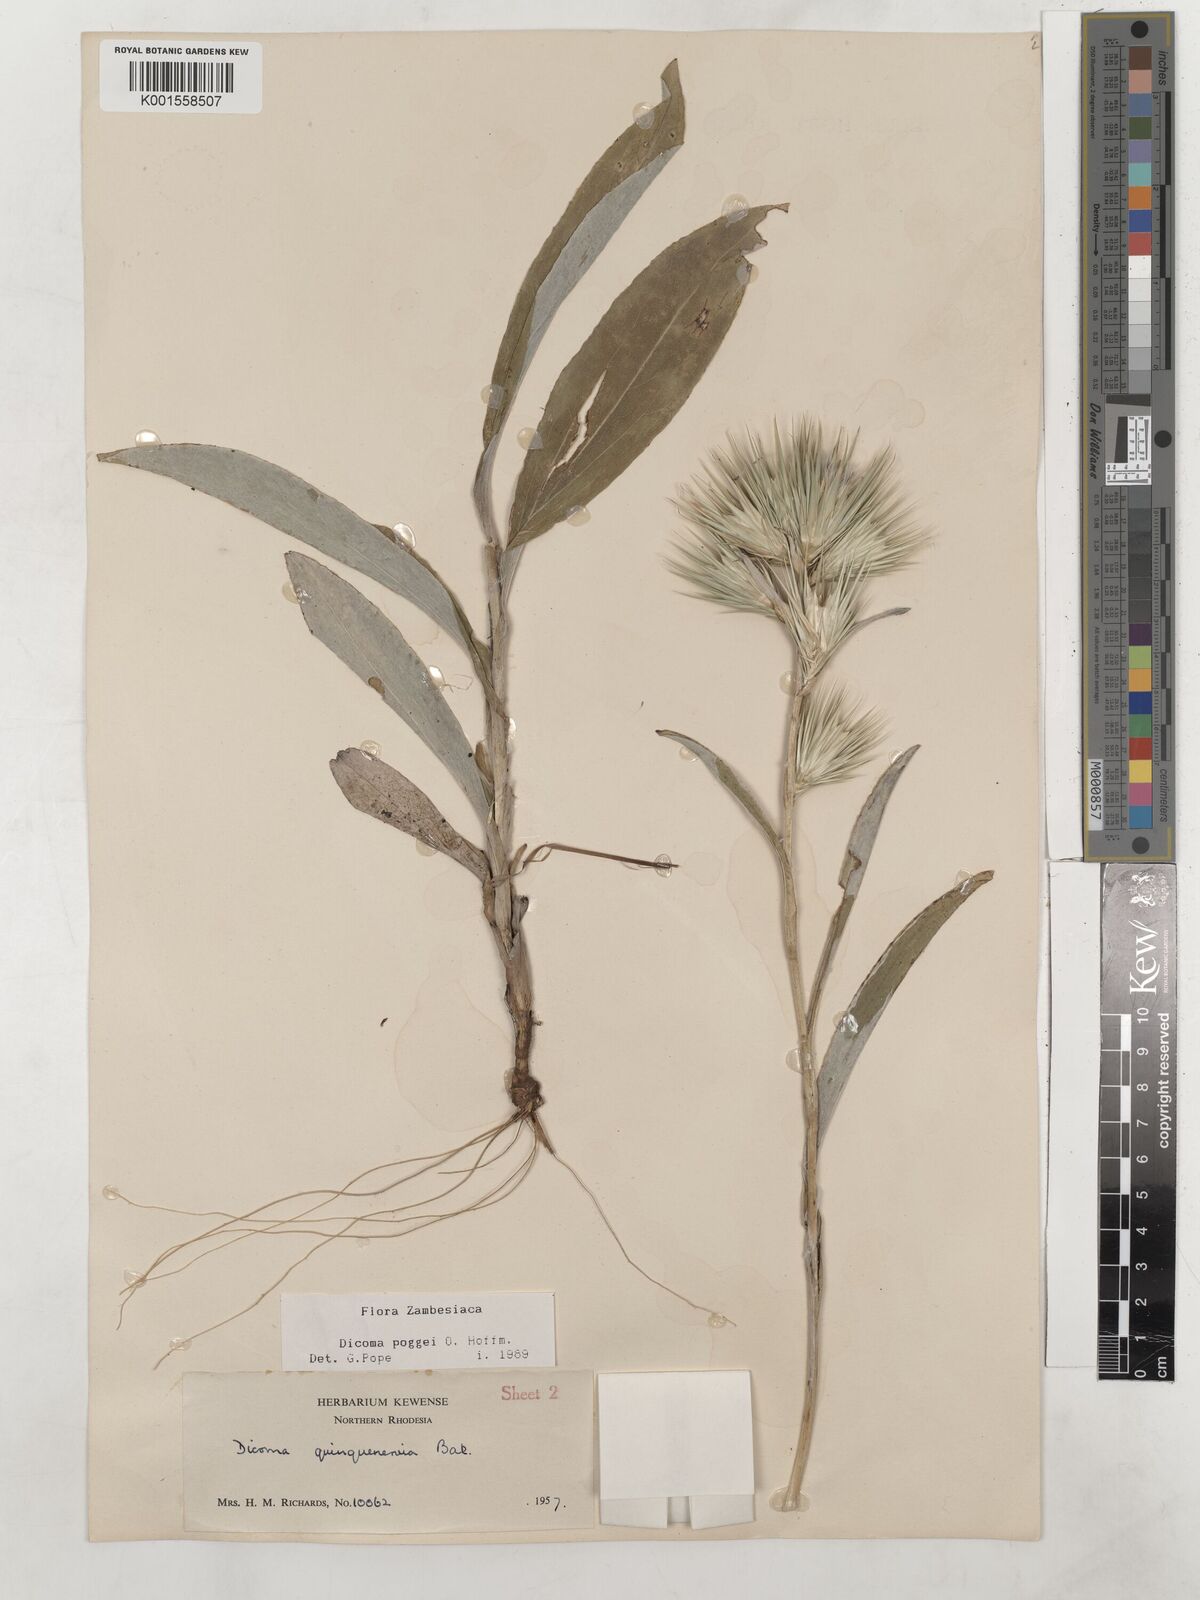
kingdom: Plantae
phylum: Tracheophyta
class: Magnoliopsida
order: Asterales
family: Asteraceae
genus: Macledium
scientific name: Macledium poggei
